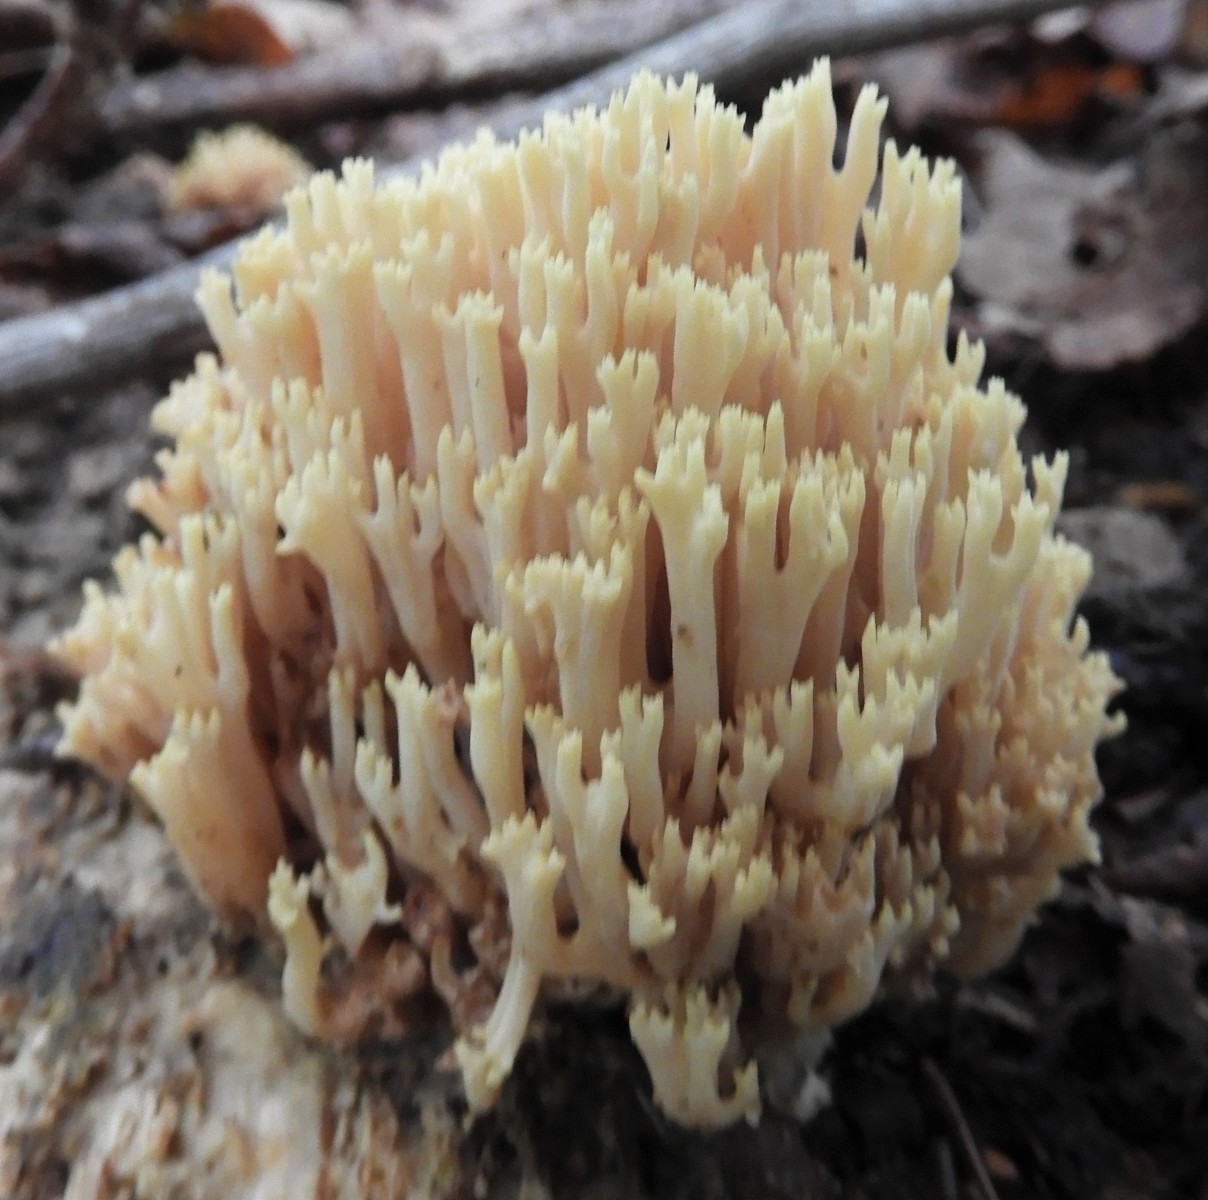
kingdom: Fungi
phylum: Basidiomycota
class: Agaricomycetes
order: Gomphales
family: Gomphaceae
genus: Ramaria
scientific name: Ramaria stricta
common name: rank koralsvamp
